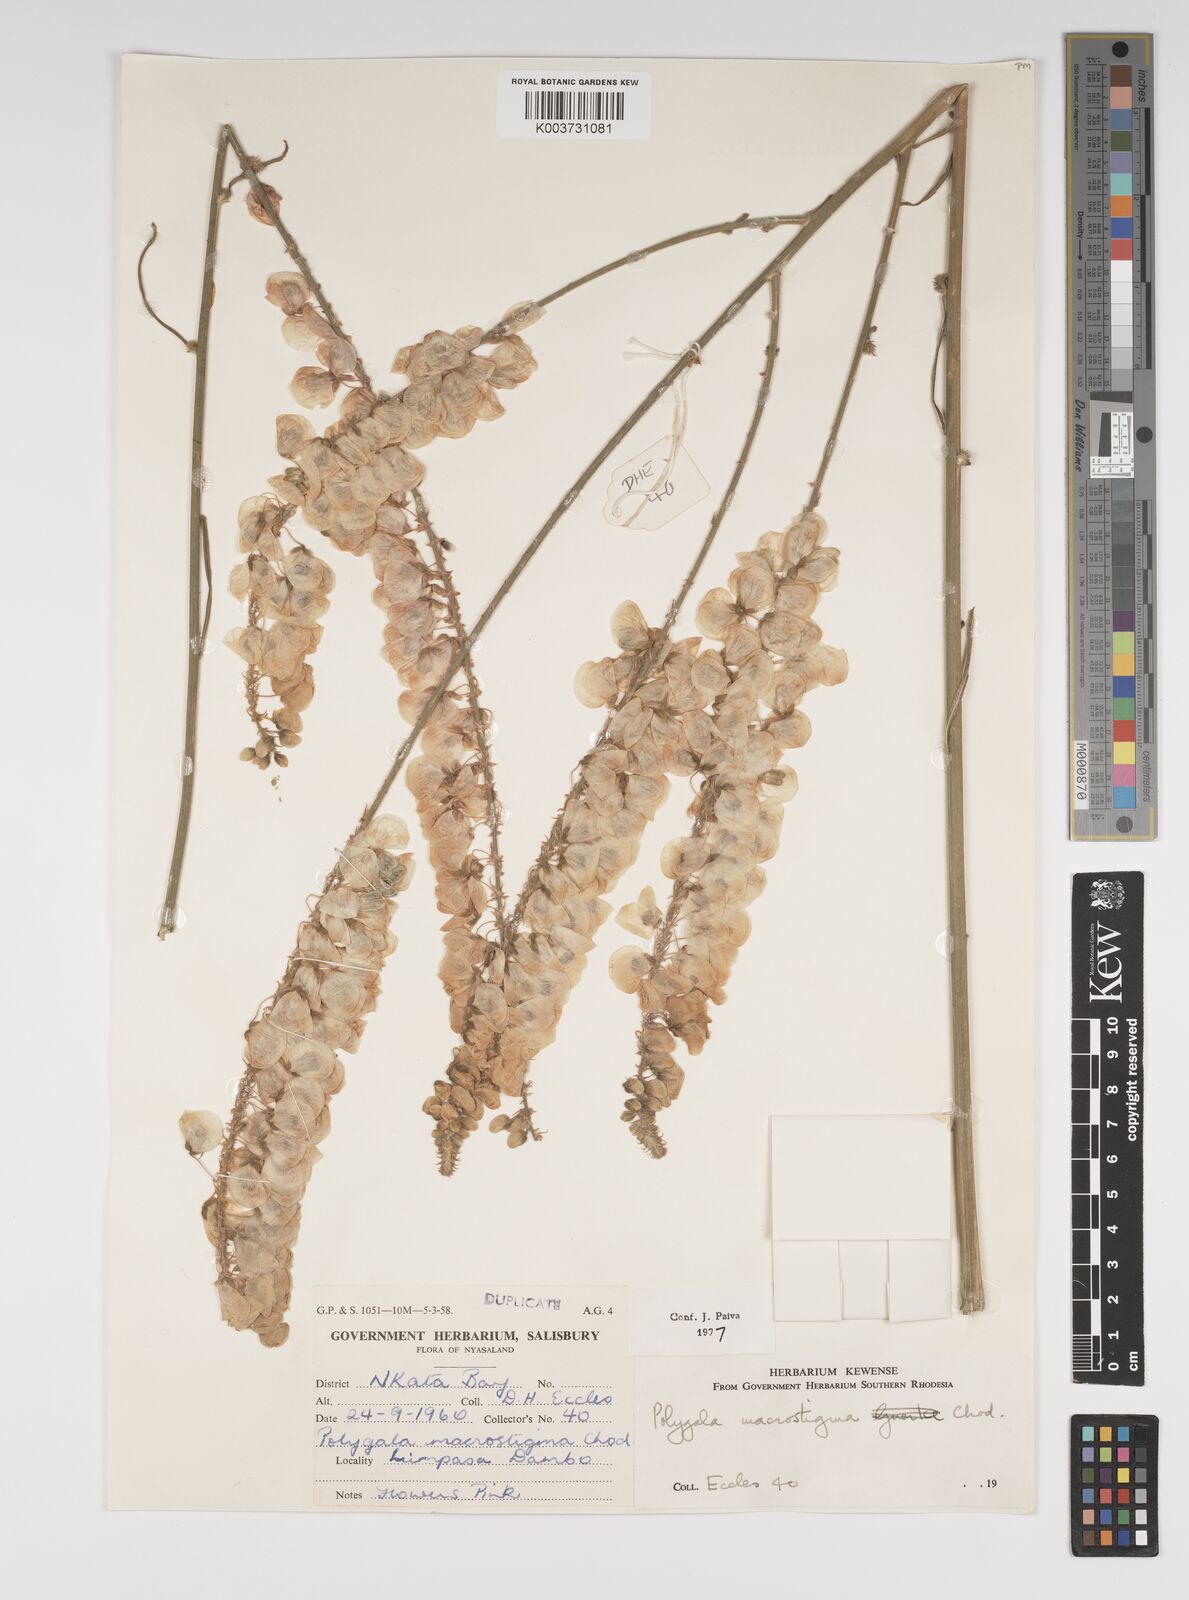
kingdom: Plantae
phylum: Tracheophyta
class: Magnoliopsida
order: Fabales
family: Polygalaceae
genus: Polygala
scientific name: Polygala macrostigma
